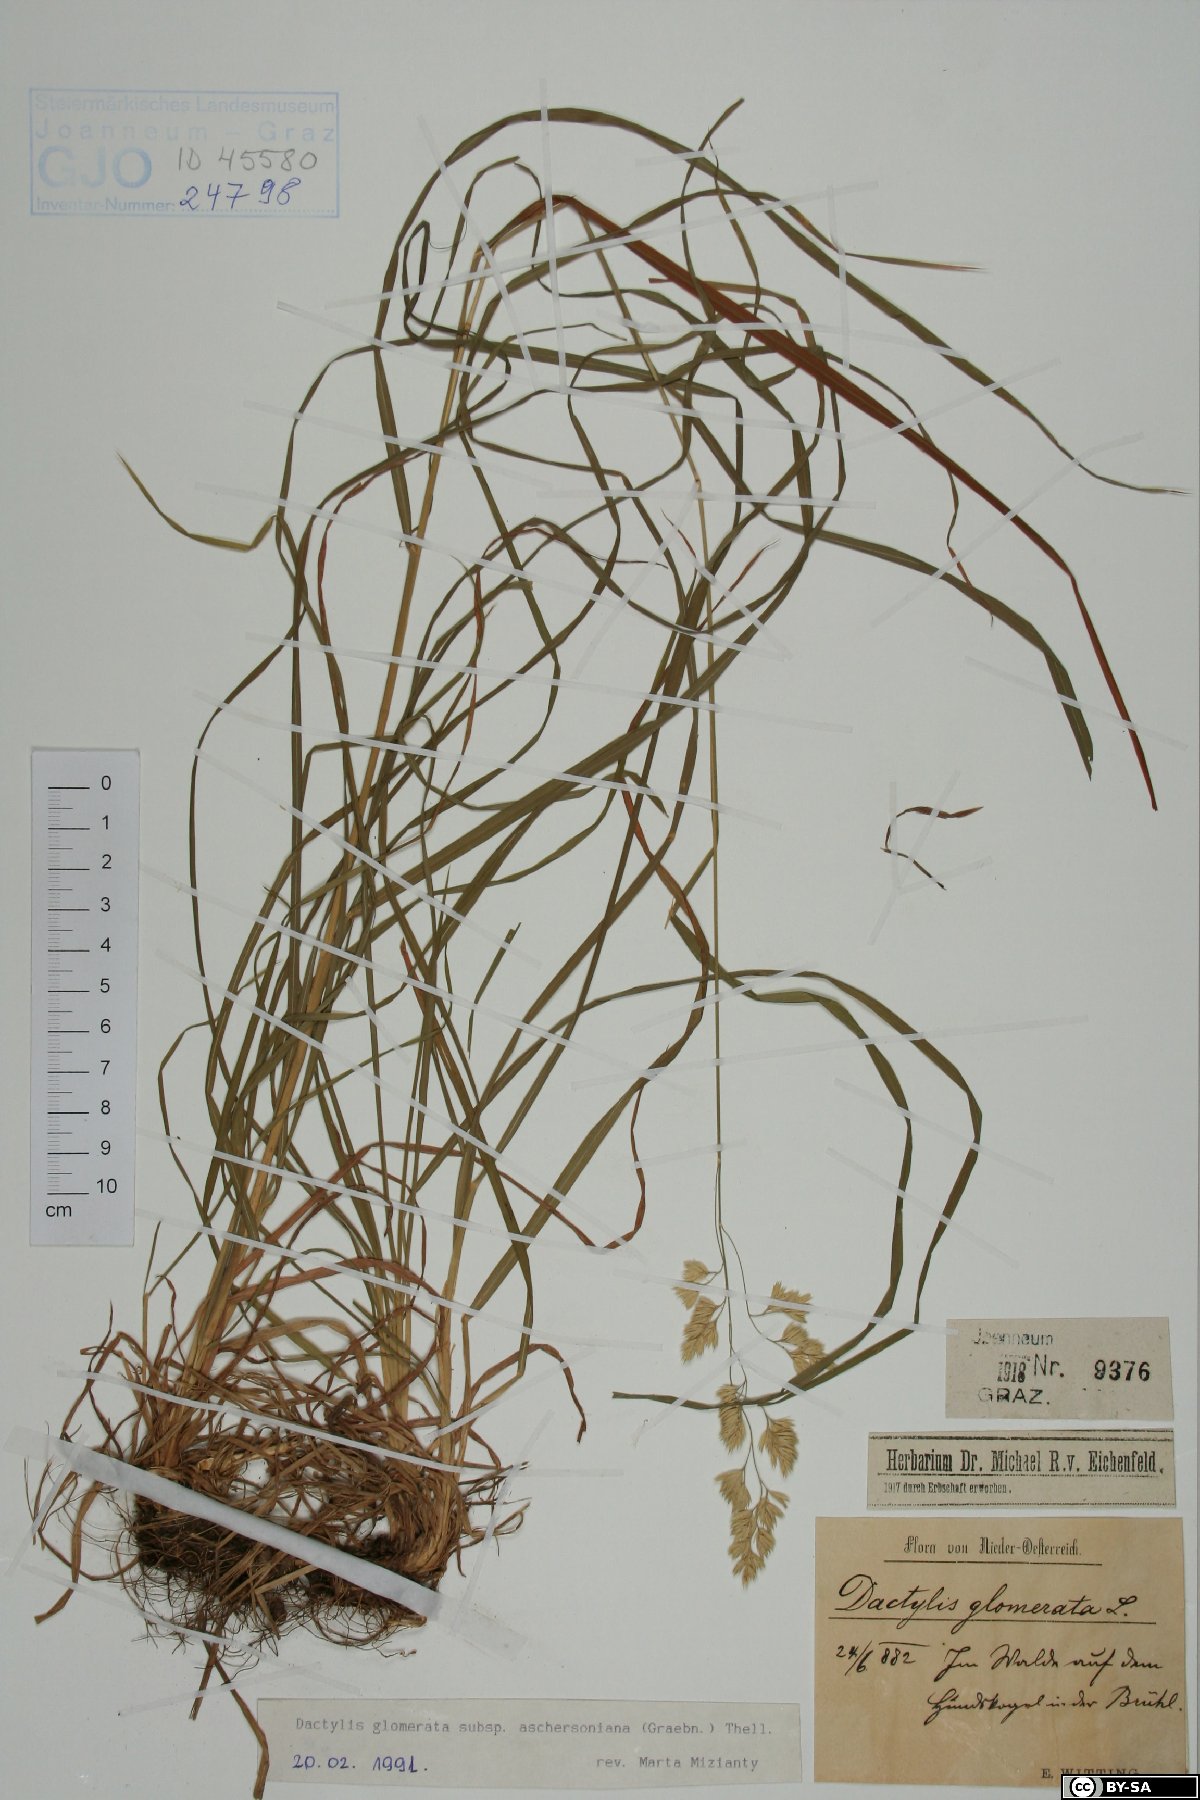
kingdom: Plantae
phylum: Tracheophyta
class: Liliopsida
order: Poales
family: Poaceae
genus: Dactylis
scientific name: Dactylis glomerata
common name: Orchardgrass
